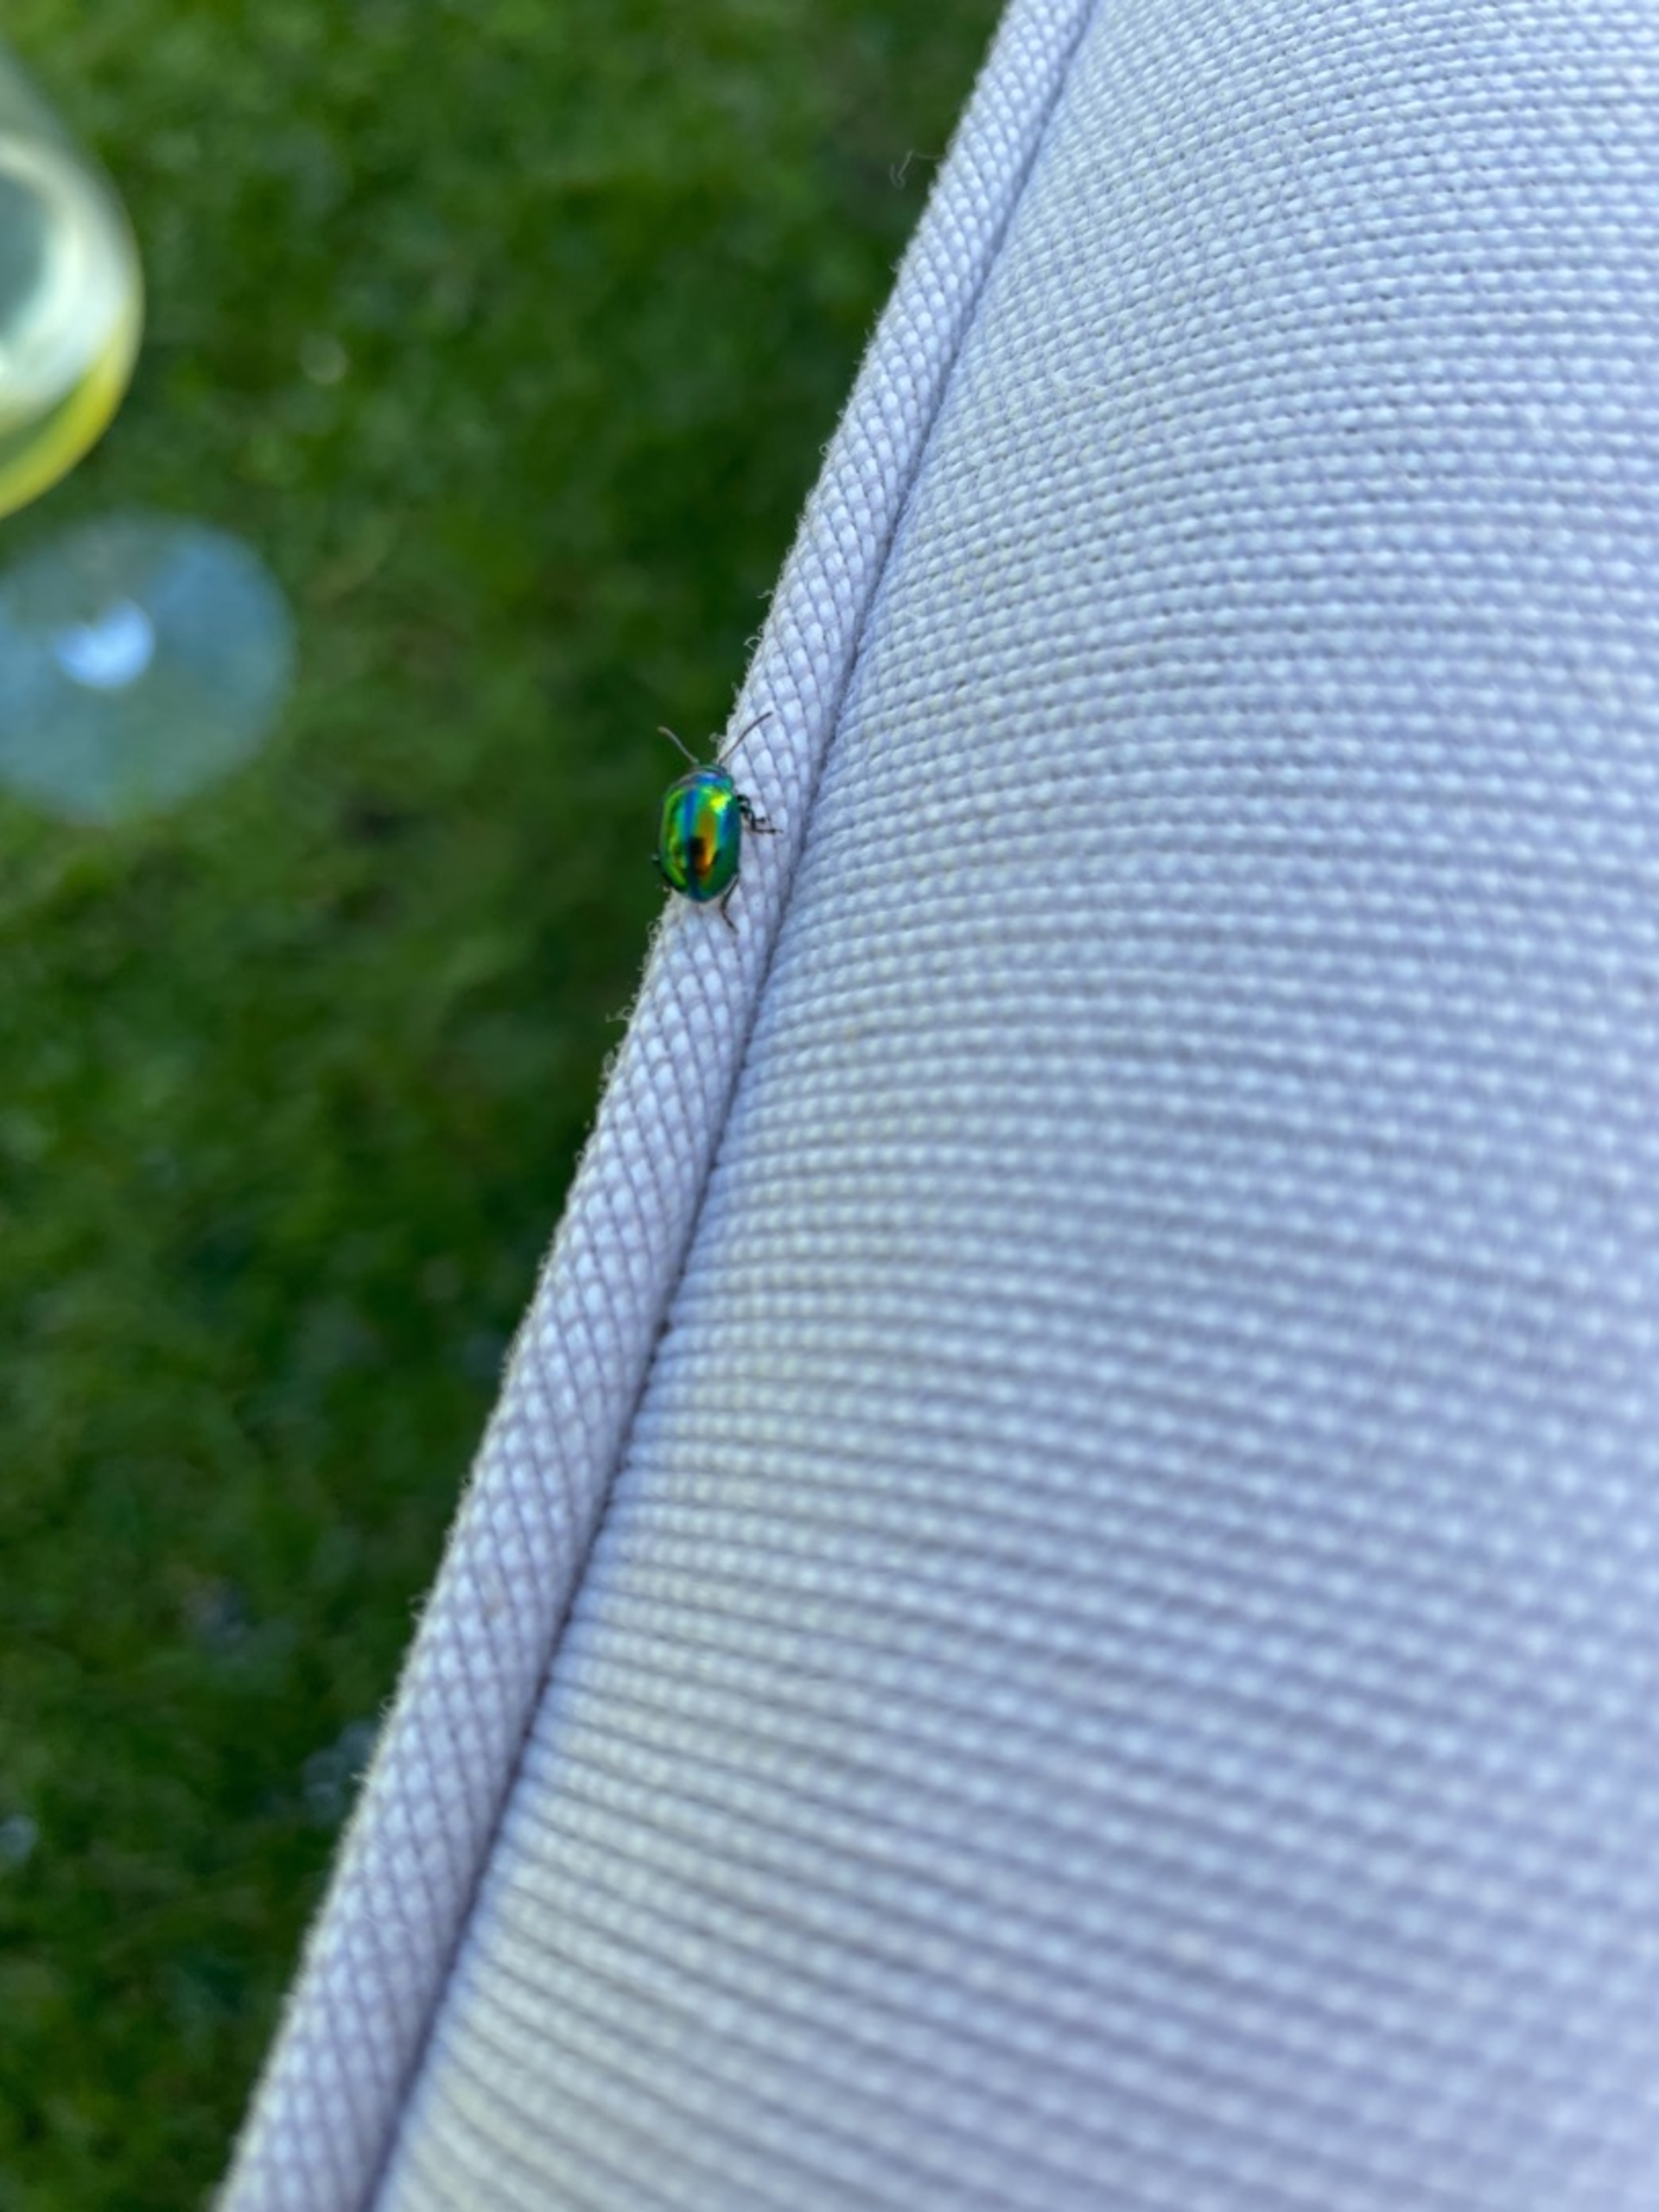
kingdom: Animalia
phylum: Arthropoda
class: Insecta
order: Coleoptera
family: Chrysomelidae
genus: Chrysolina
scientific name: Chrysolina fastuosa
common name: Tvetandbladbille
